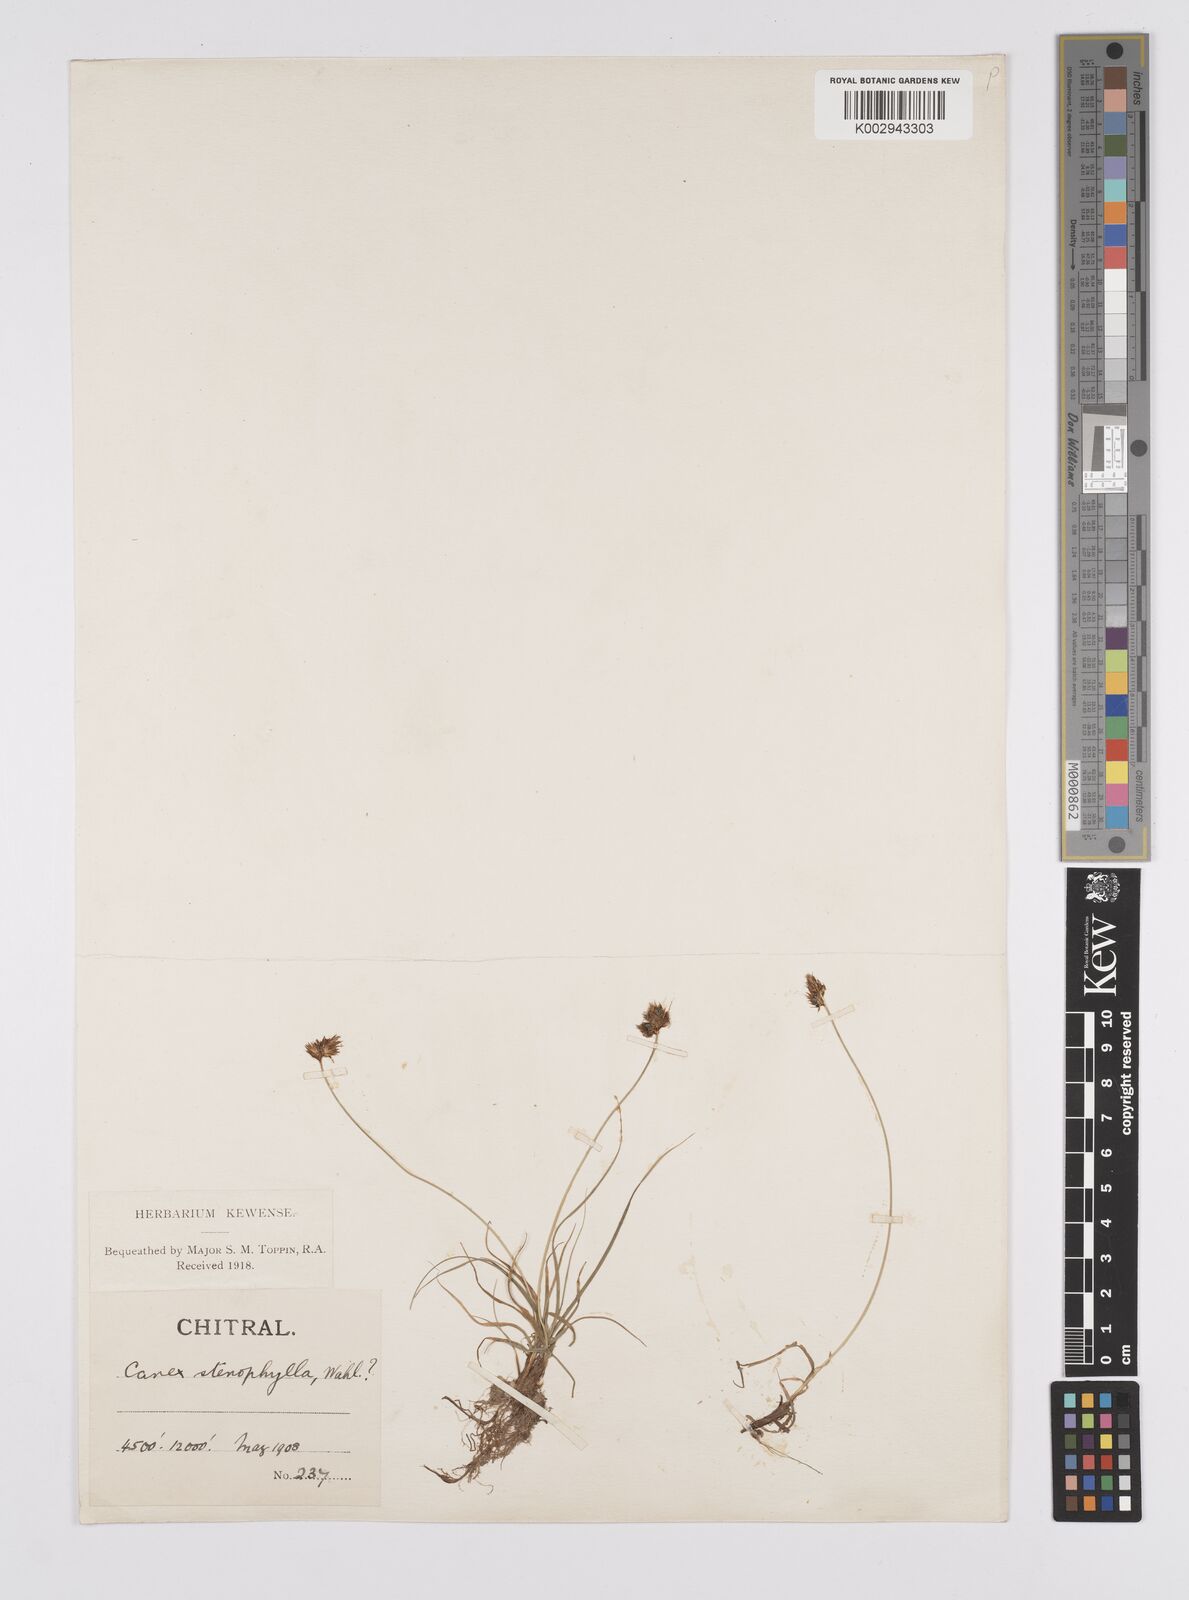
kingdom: Plantae
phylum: Tracheophyta
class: Liliopsida
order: Poales
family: Cyperaceae
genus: Carex
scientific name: Carex stenophylla
